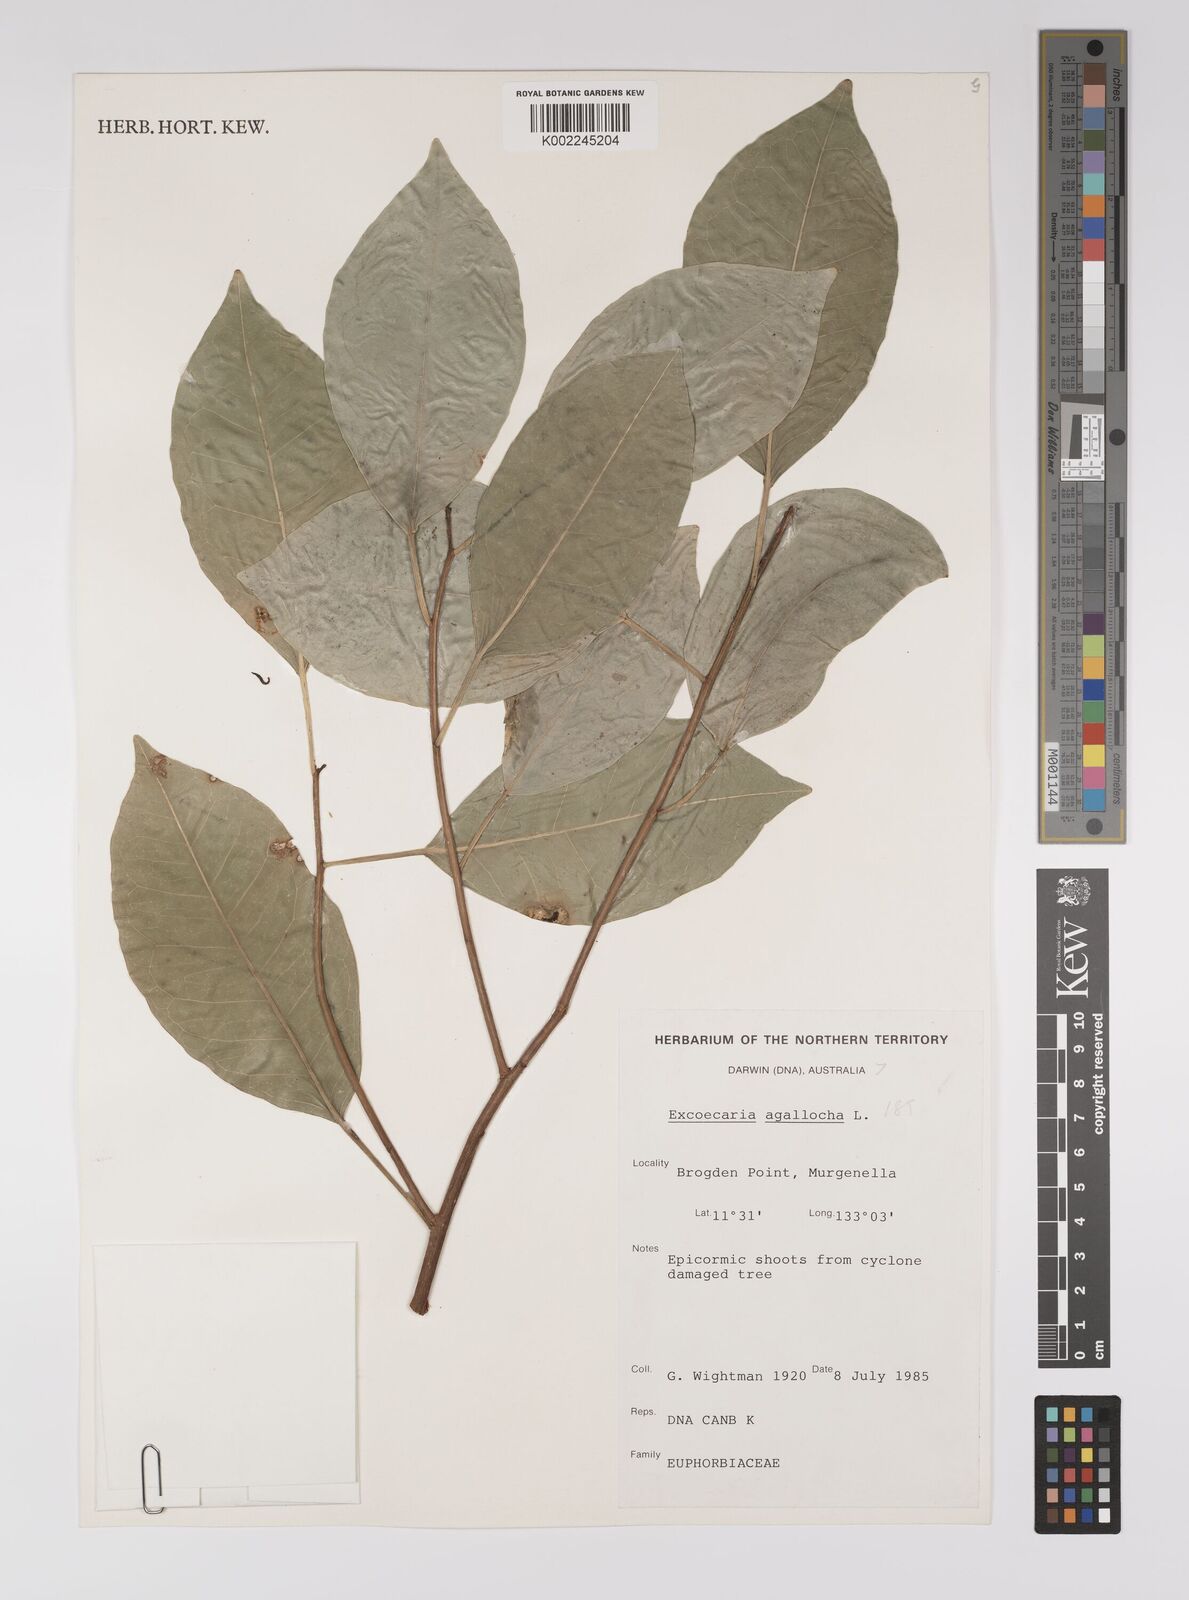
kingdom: Plantae
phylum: Tracheophyta
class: Magnoliopsida
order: Malpighiales
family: Euphorbiaceae
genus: Excoecaria
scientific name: Excoecaria agallocha
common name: River poisontree
